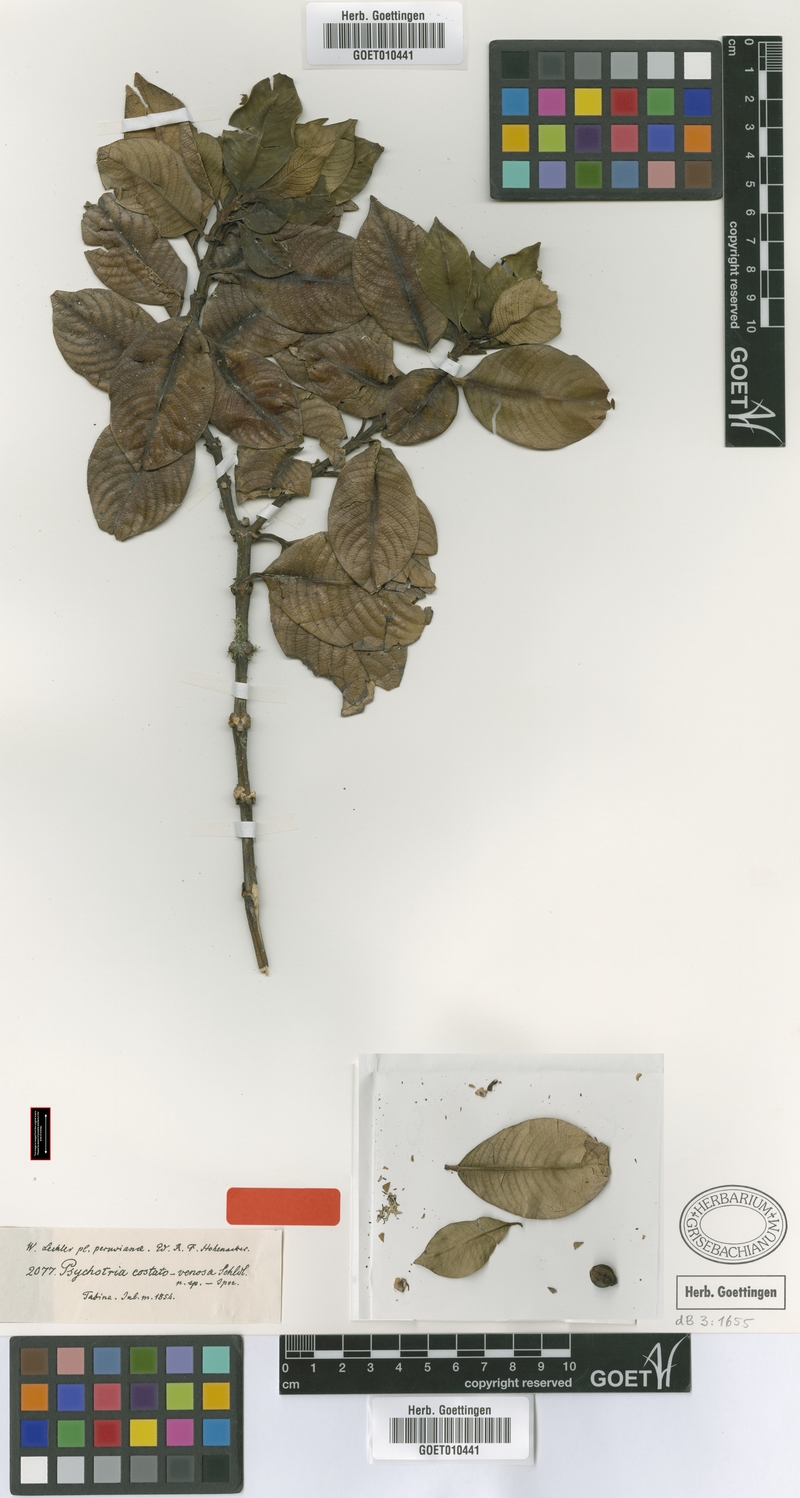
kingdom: Plantae
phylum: Tracheophyta
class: Magnoliopsida
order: Gentianales
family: Rubiaceae
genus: Psychotria
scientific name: Psychotria costatovenosa
